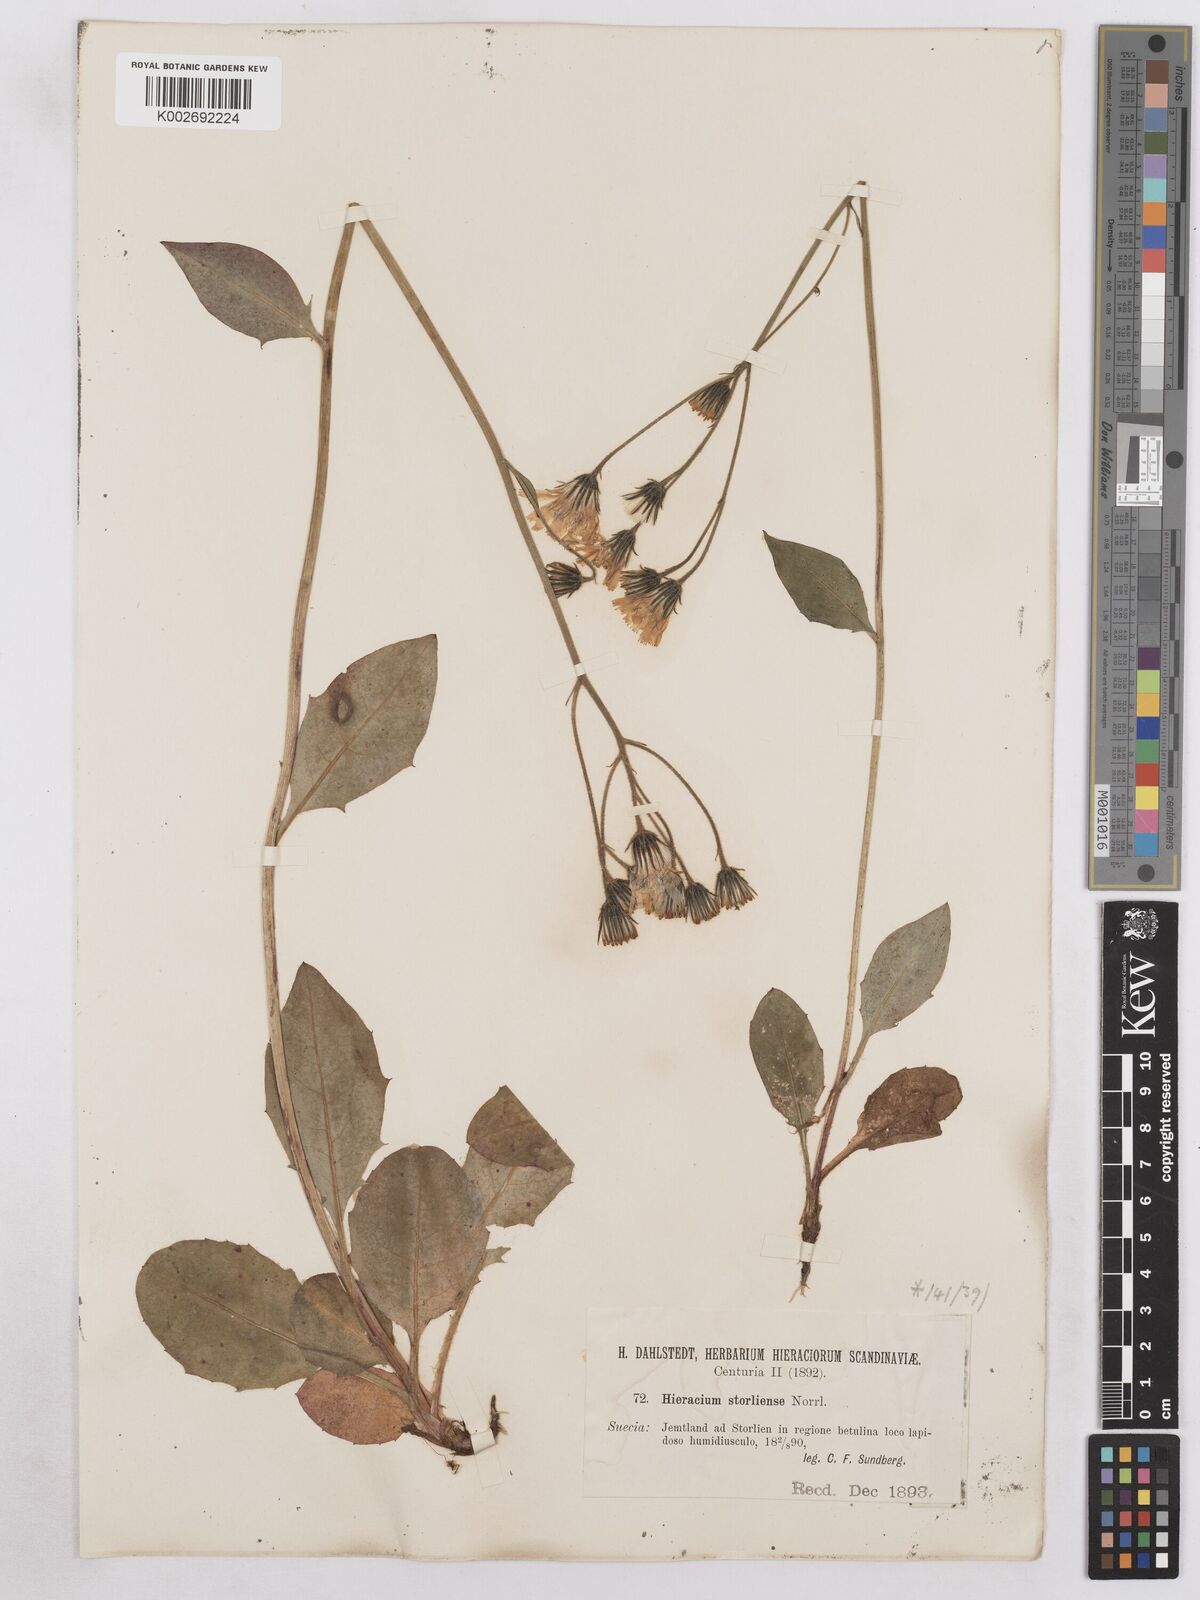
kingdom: Plantae
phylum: Tracheophyta
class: Magnoliopsida
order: Asterales
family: Asteraceae
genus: Hieracium
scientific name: Hieracium diaphanoides
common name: Fine-bracted hawkweed
